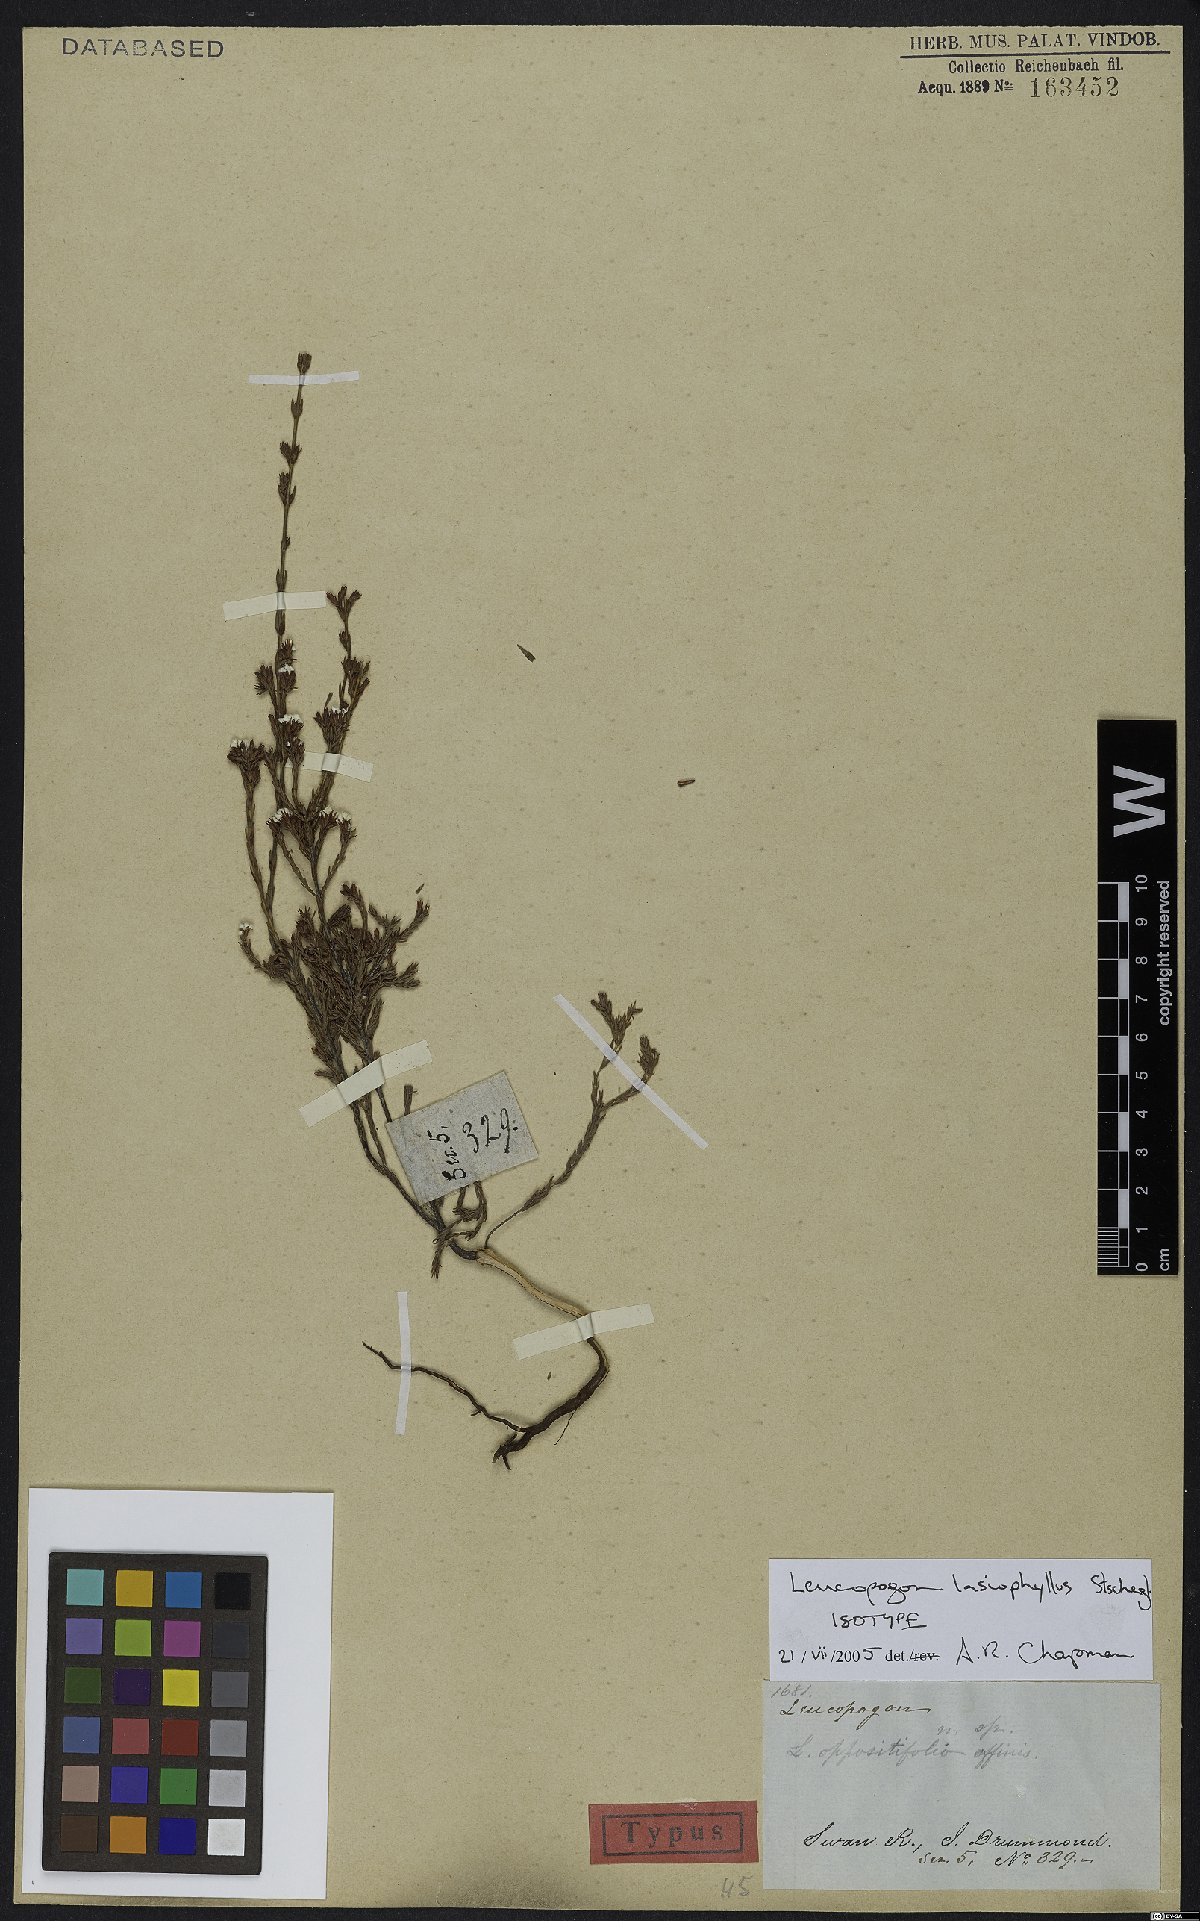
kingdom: Plantae
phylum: Tracheophyta
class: Magnoliopsida
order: Ericales
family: Ericaceae
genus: Leucopogon
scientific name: Leucopogon lasiophyllus
